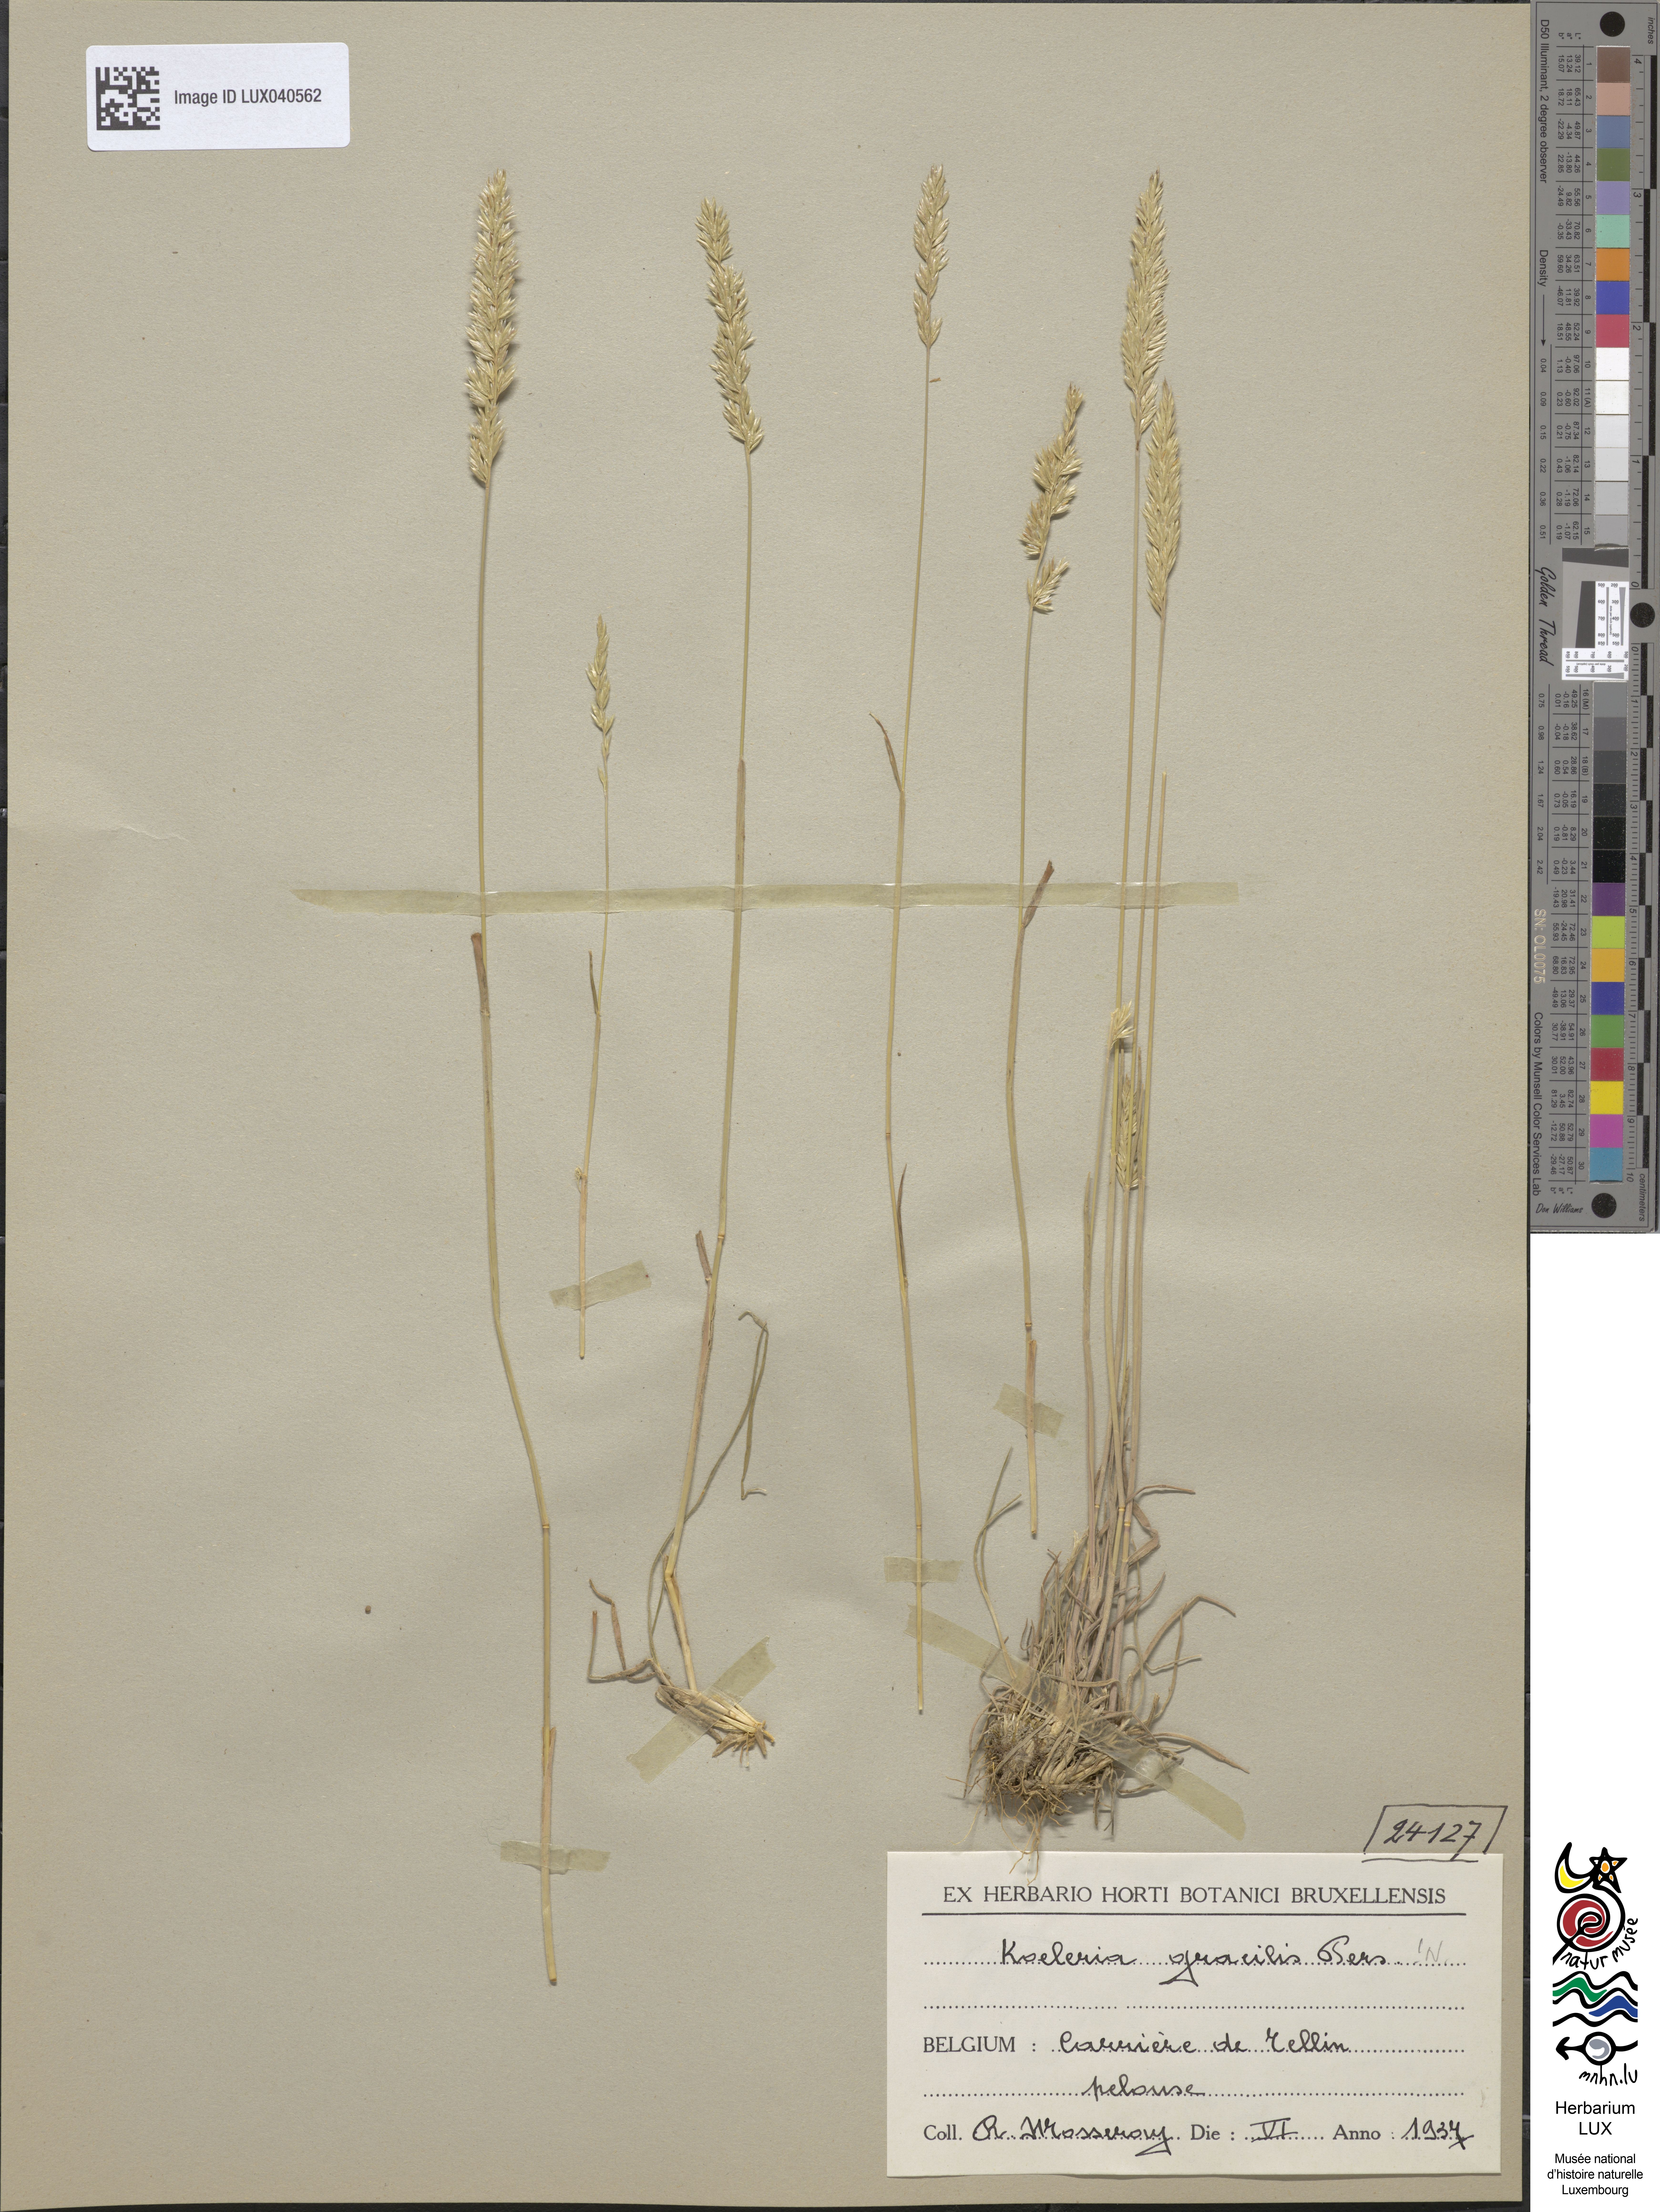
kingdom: Plantae
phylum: Tracheophyta
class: Liliopsida
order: Poales
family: Poaceae
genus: Koeleria
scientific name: Koeleria macrantha
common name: Crested hair-grass
